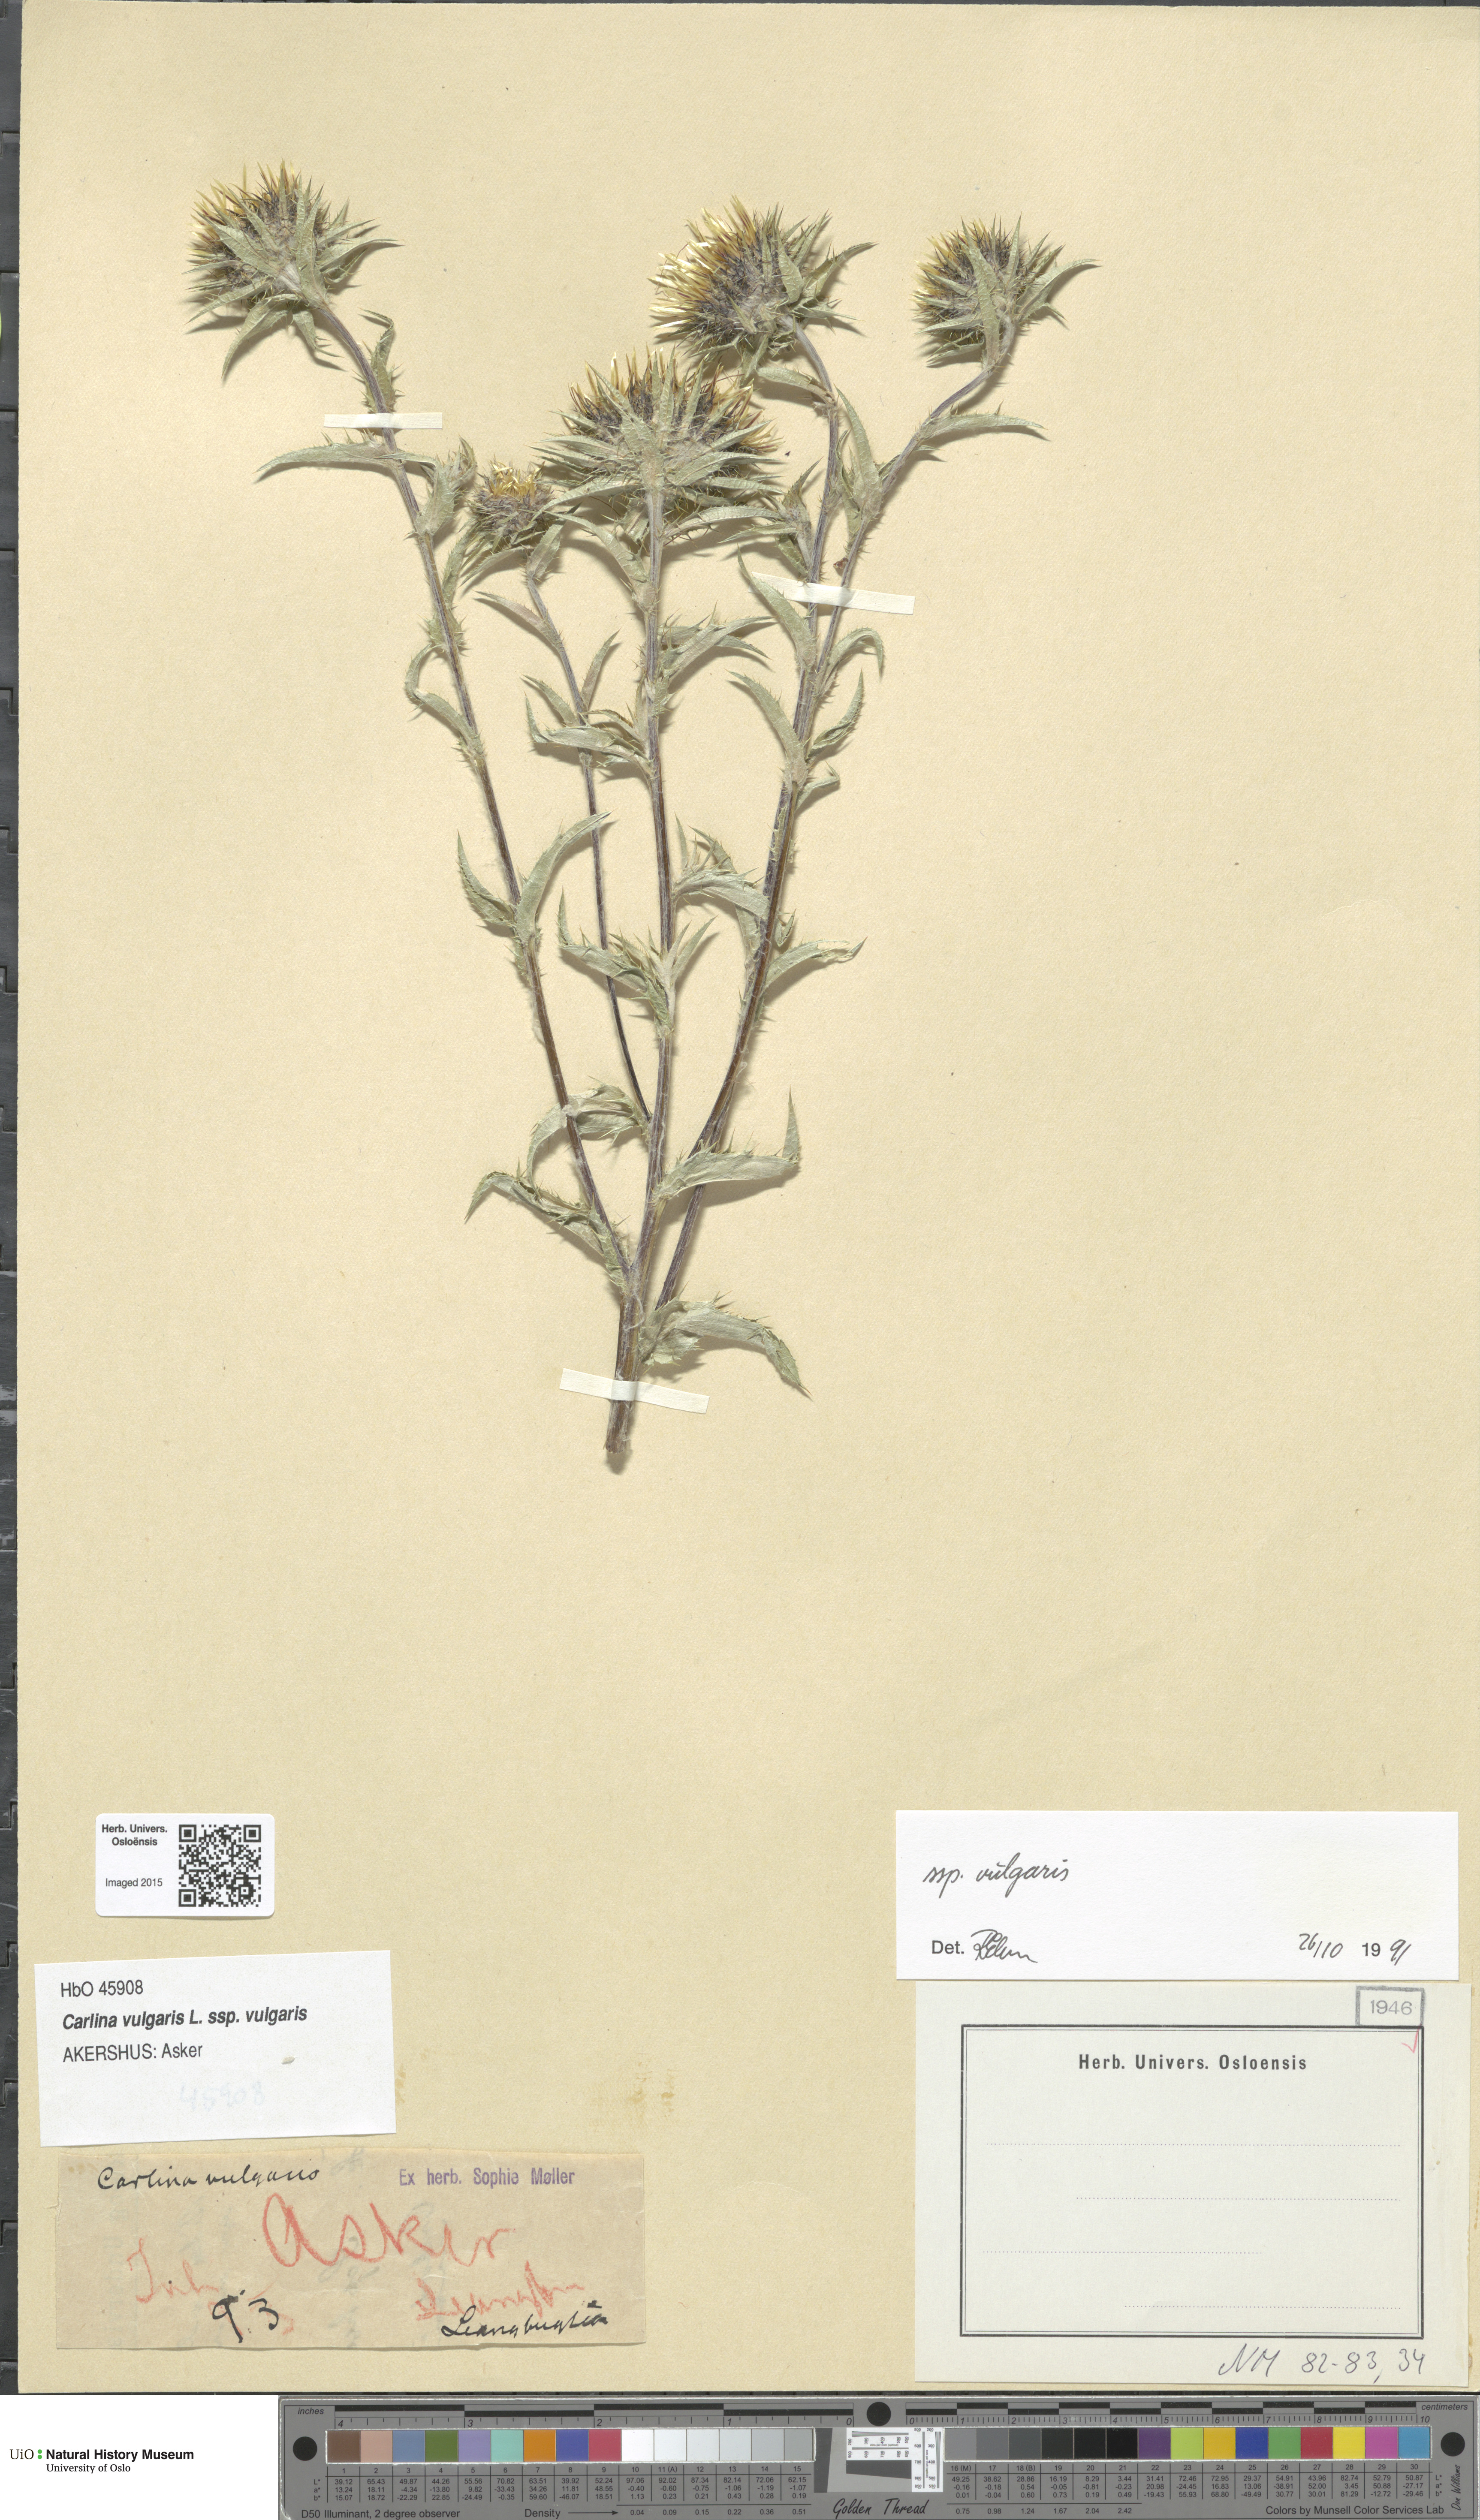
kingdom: Plantae
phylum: Tracheophyta
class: Magnoliopsida
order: Asterales
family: Asteraceae
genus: Carlina
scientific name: Carlina vulgaris
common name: Carline thistle
